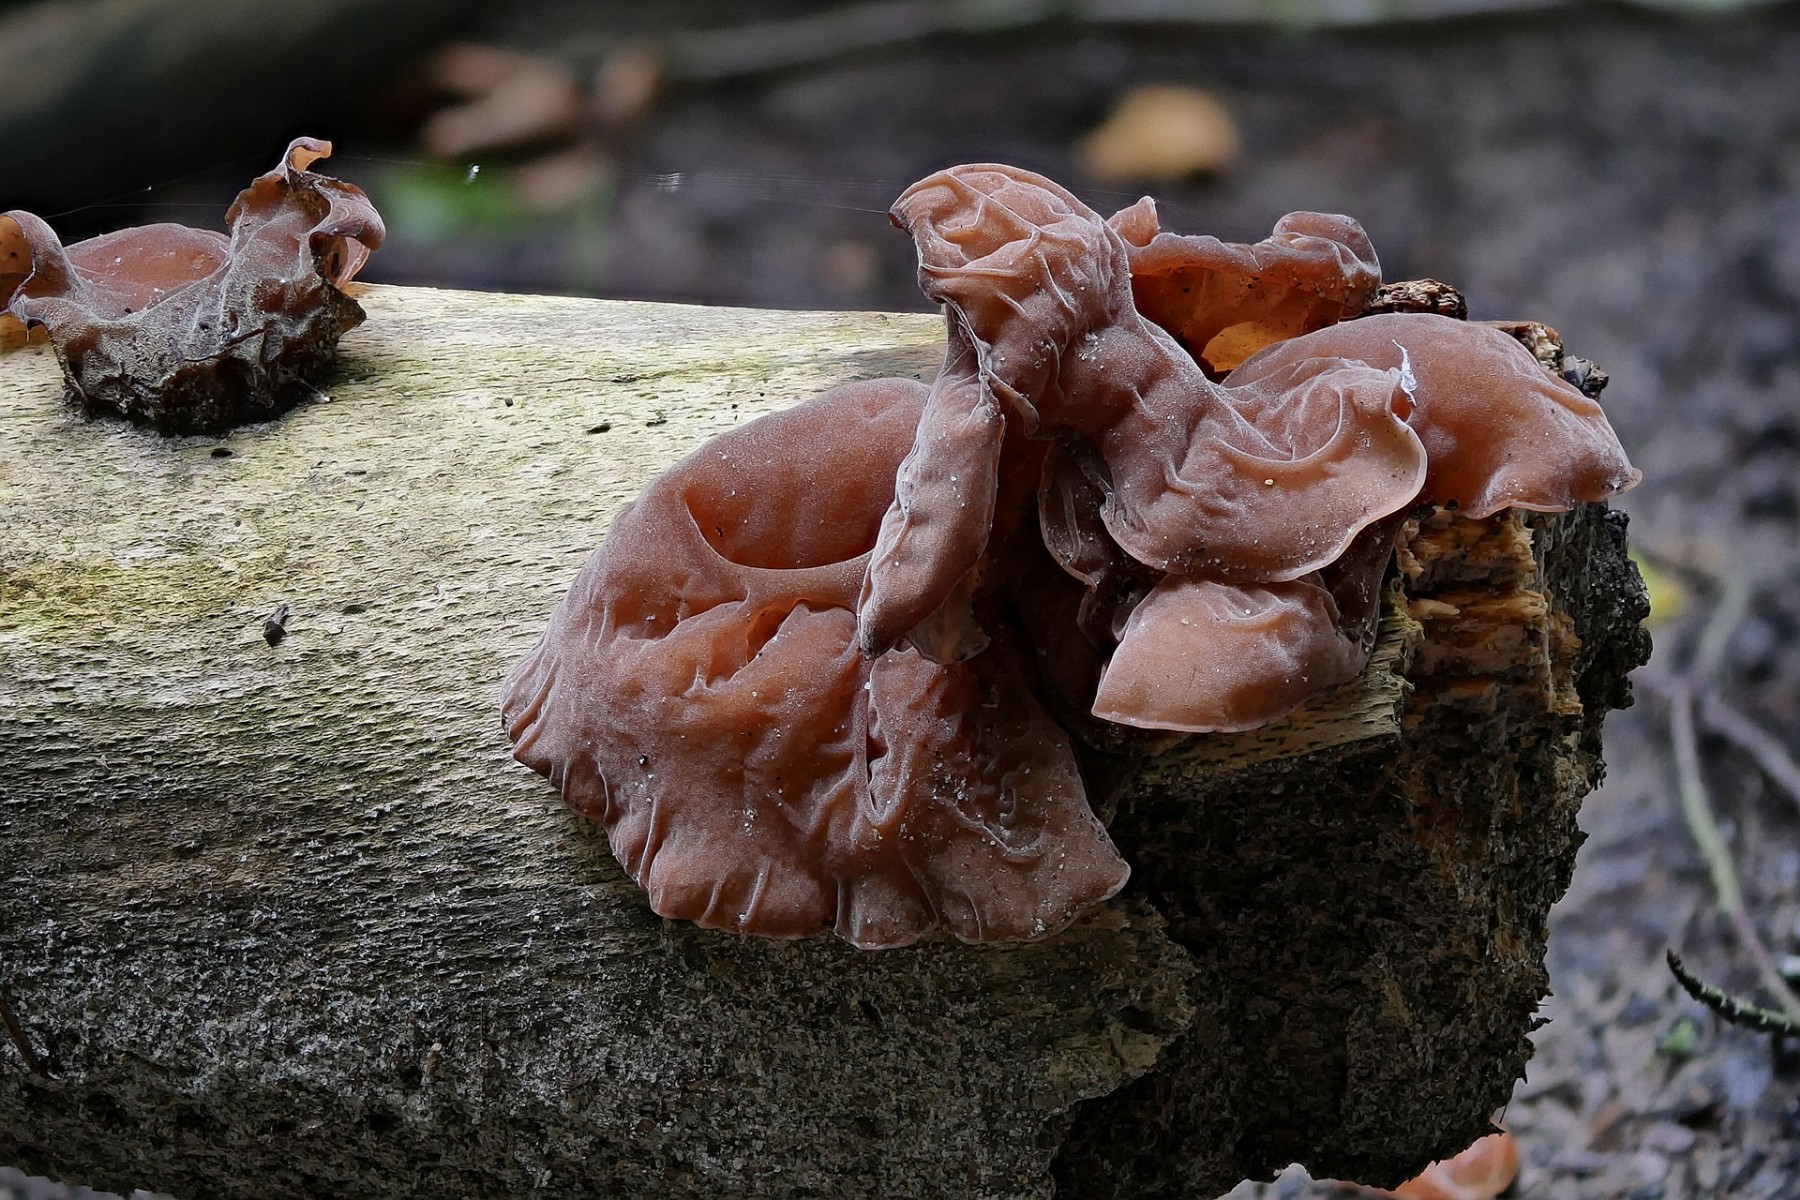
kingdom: Fungi
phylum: Basidiomycota
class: Agaricomycetes
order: Auriculariales
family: Auriculariaceae
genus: Auricularia
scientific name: Auricularia auricula-judae
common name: almindelig judasøre
